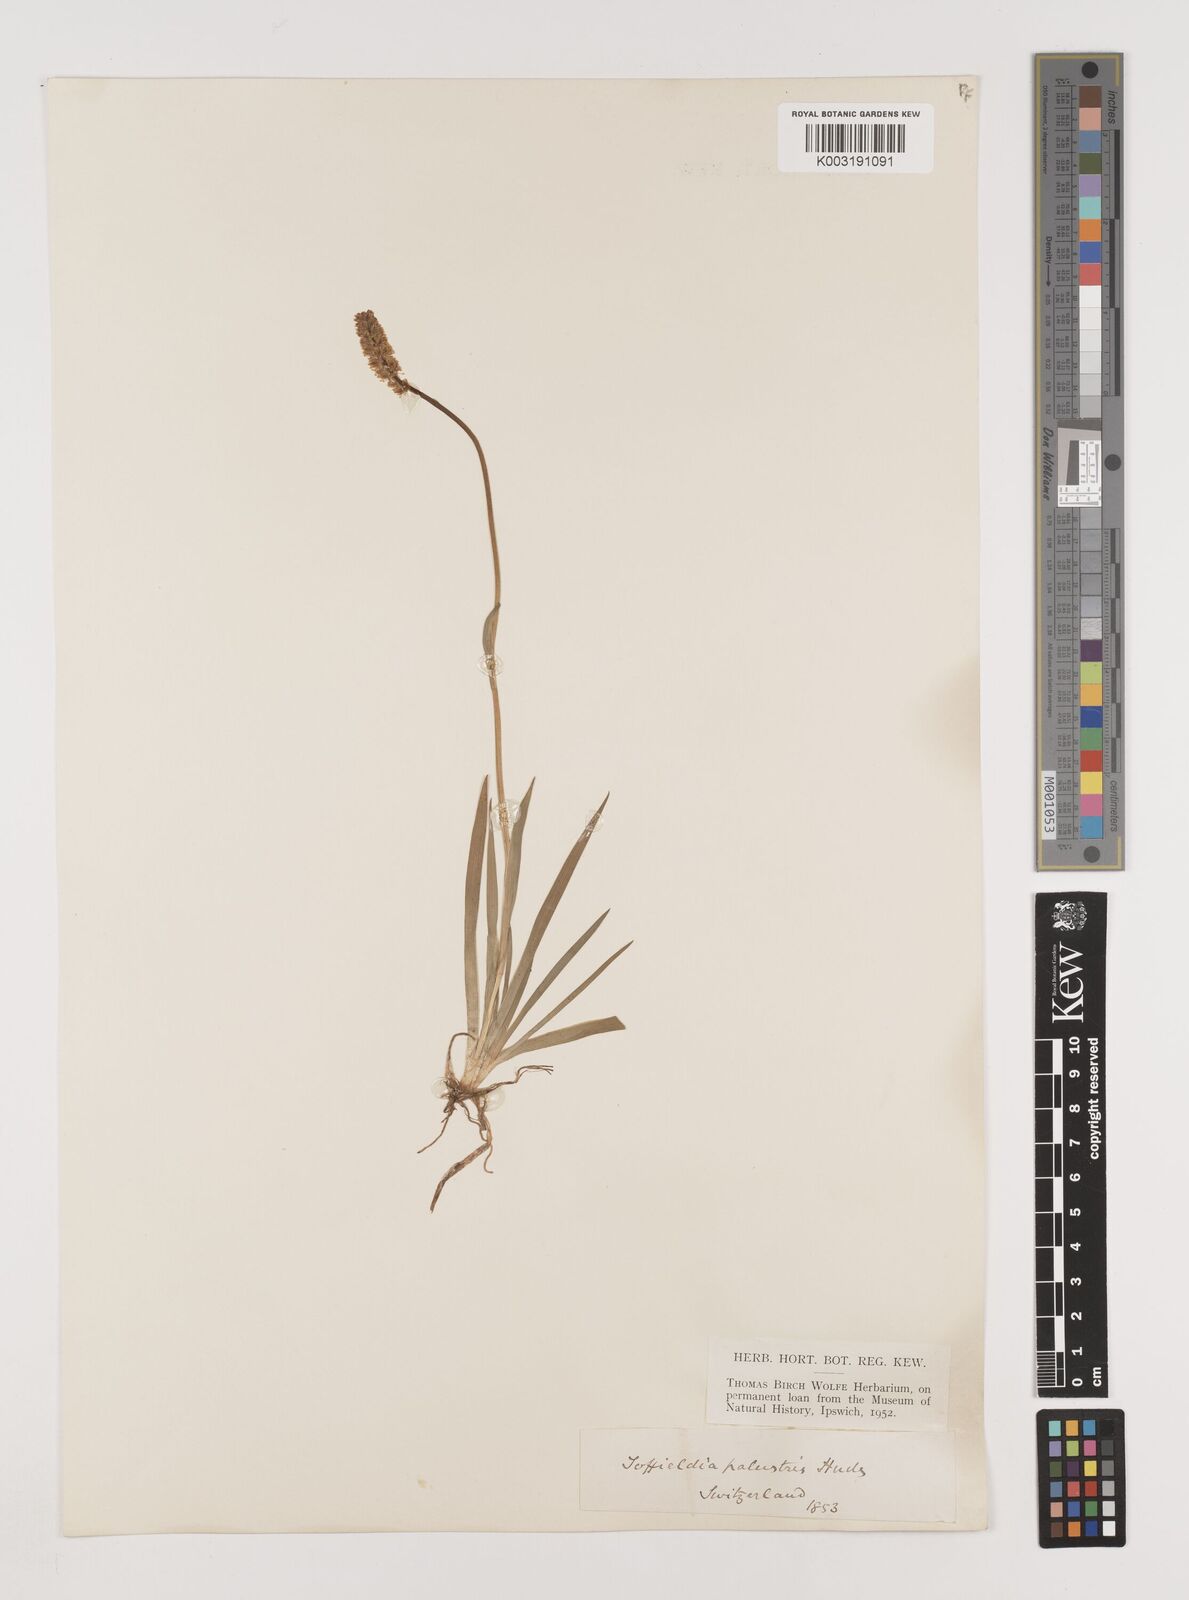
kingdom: Plantae
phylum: Tracheophyta
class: Liliopsida
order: Alismatales
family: Tofieldiaceae
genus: Tofieldia
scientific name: Tofieldia pusilla
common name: Scottish false asphodel
